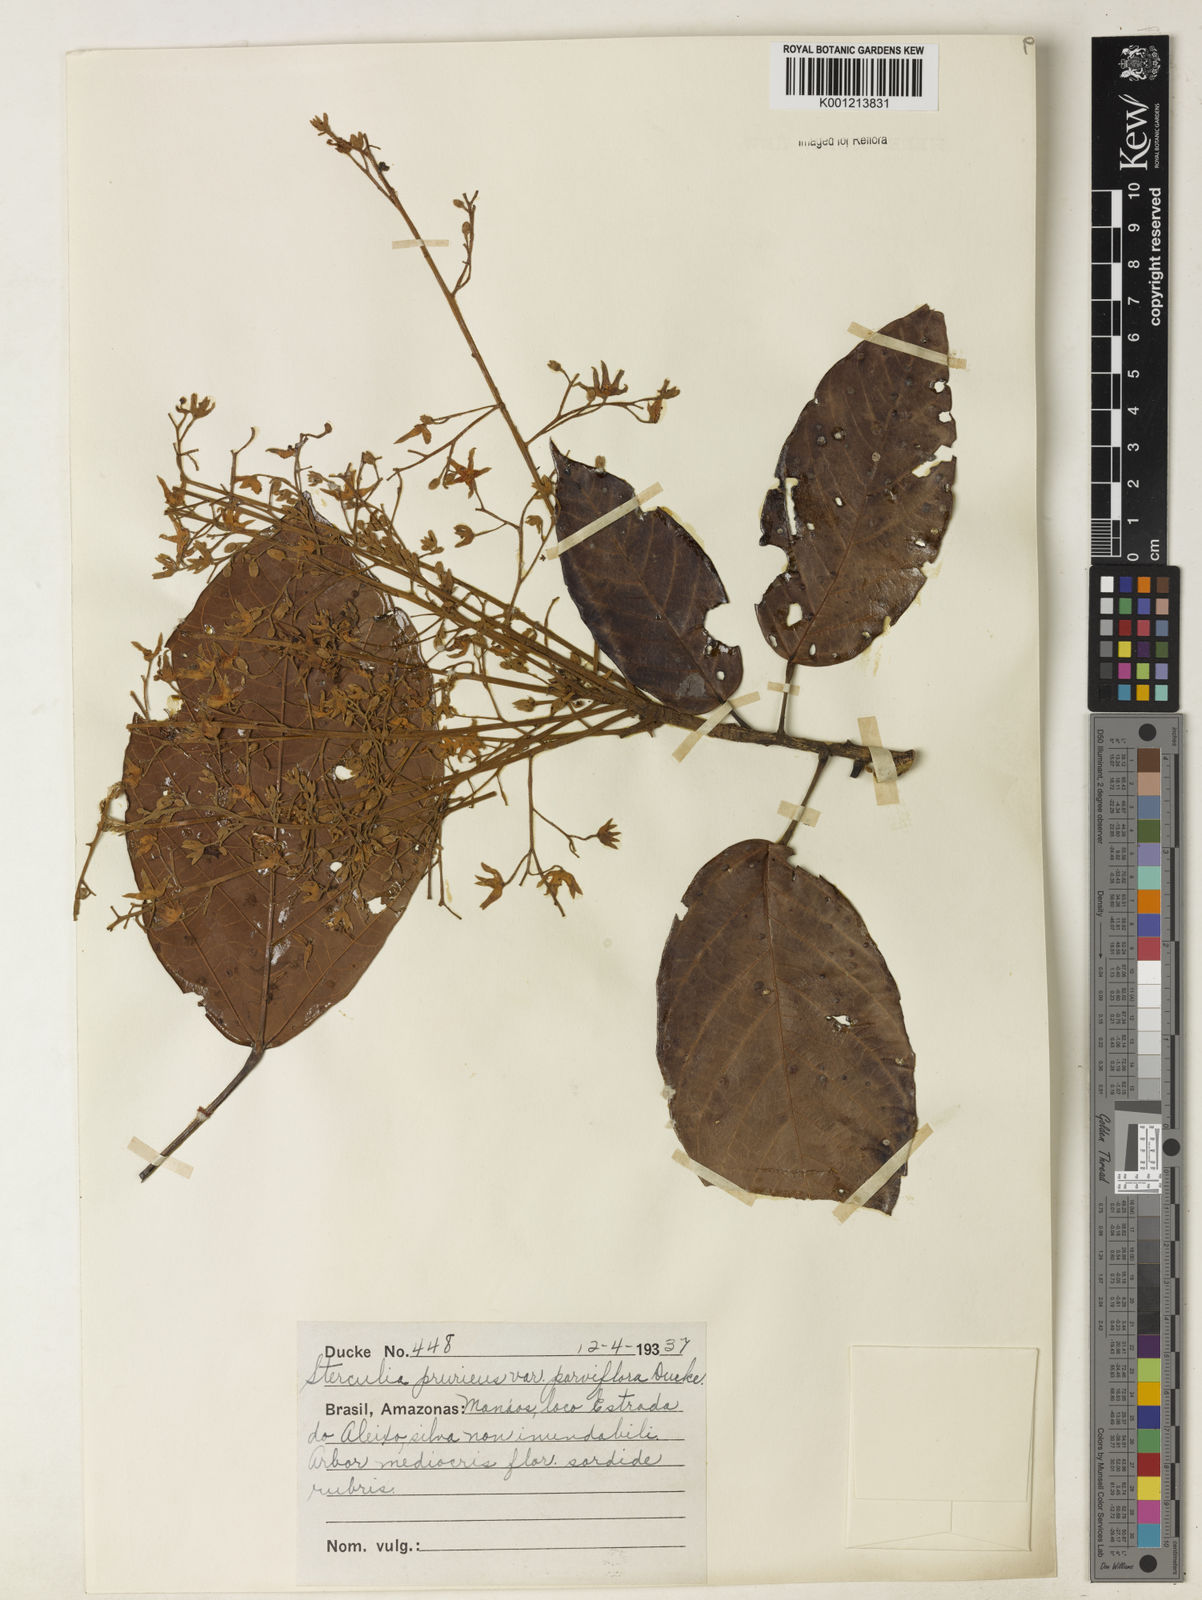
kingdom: Plantae
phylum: Tracheophyta
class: Magnoliopsida
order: Malvales
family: Malvaceae
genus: Sterculia
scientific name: Sterculia pruriens
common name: Grand mahot
